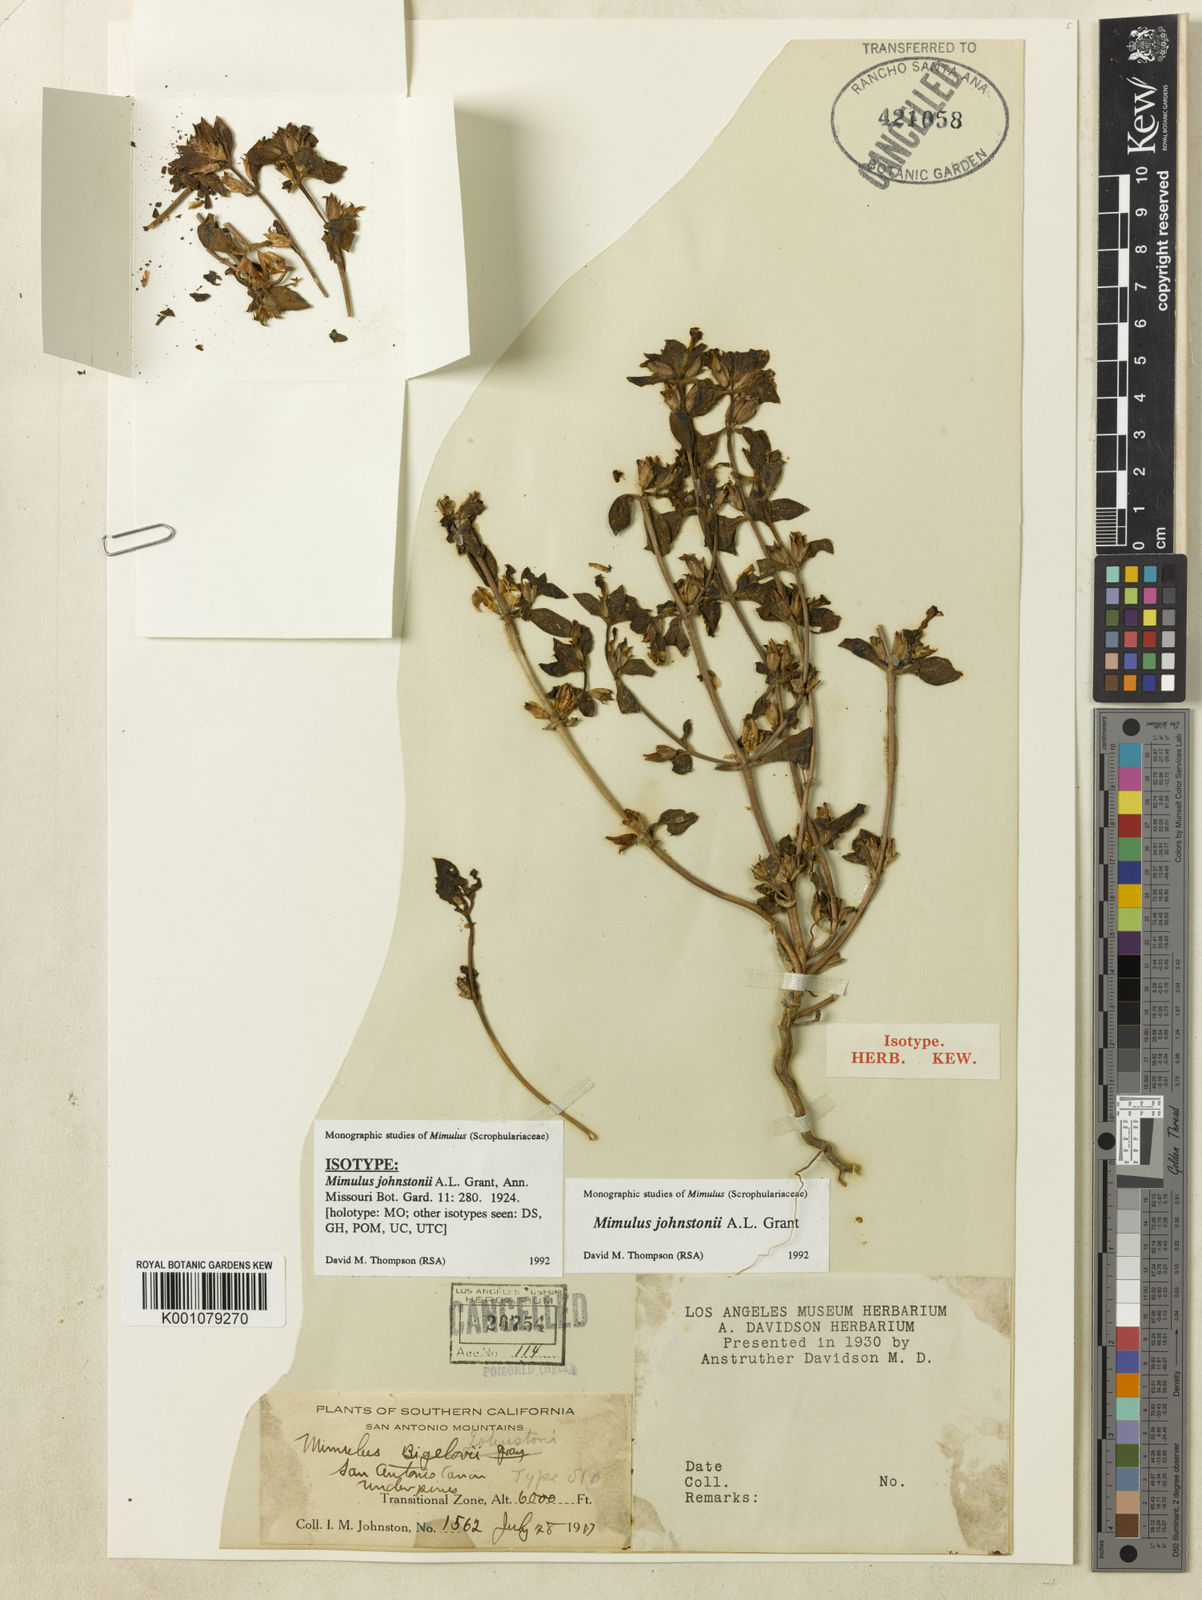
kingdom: Plantae
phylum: Tracheophyta
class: Magnoliopsida
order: Lamiales
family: Phrymaceae
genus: Diplacus
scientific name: Diplacus johnstonii
